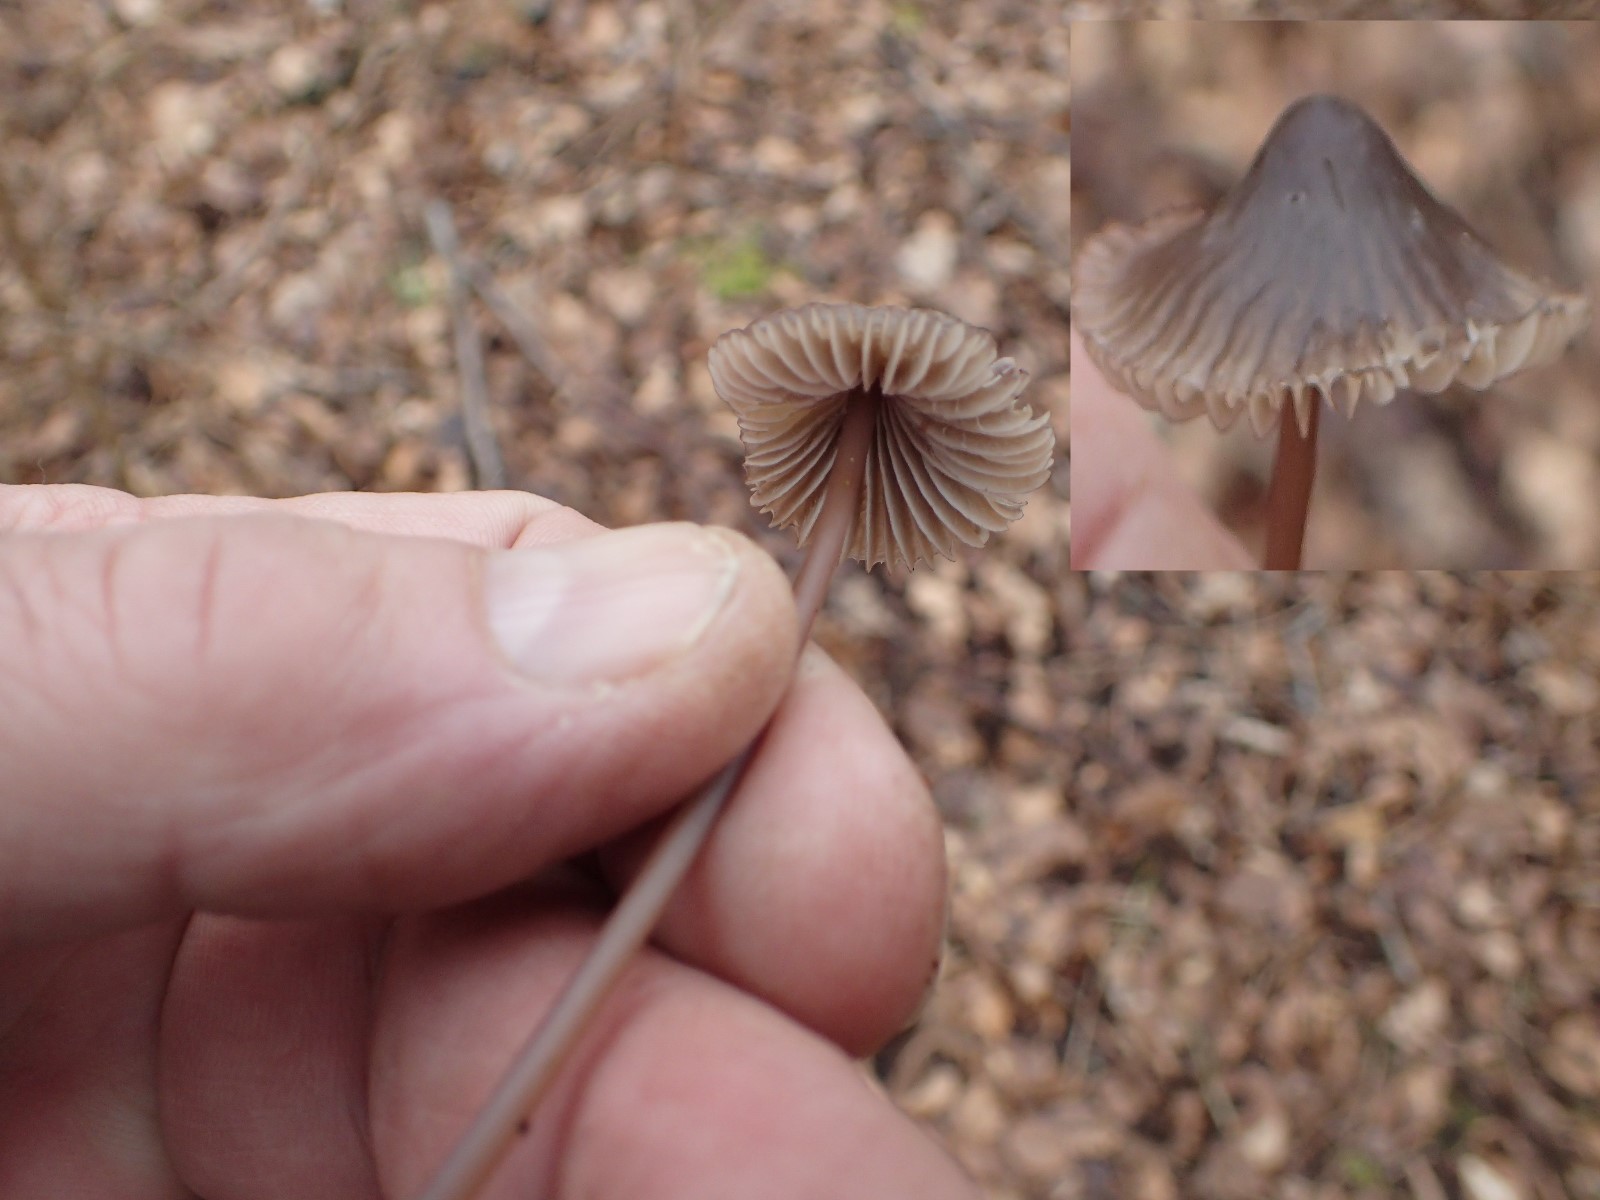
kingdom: Fungi
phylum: Basidiomycota
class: Agaricomycetes
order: Agaricales
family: Mycenaceae
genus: Mycena
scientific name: Mycena
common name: huesvamp
